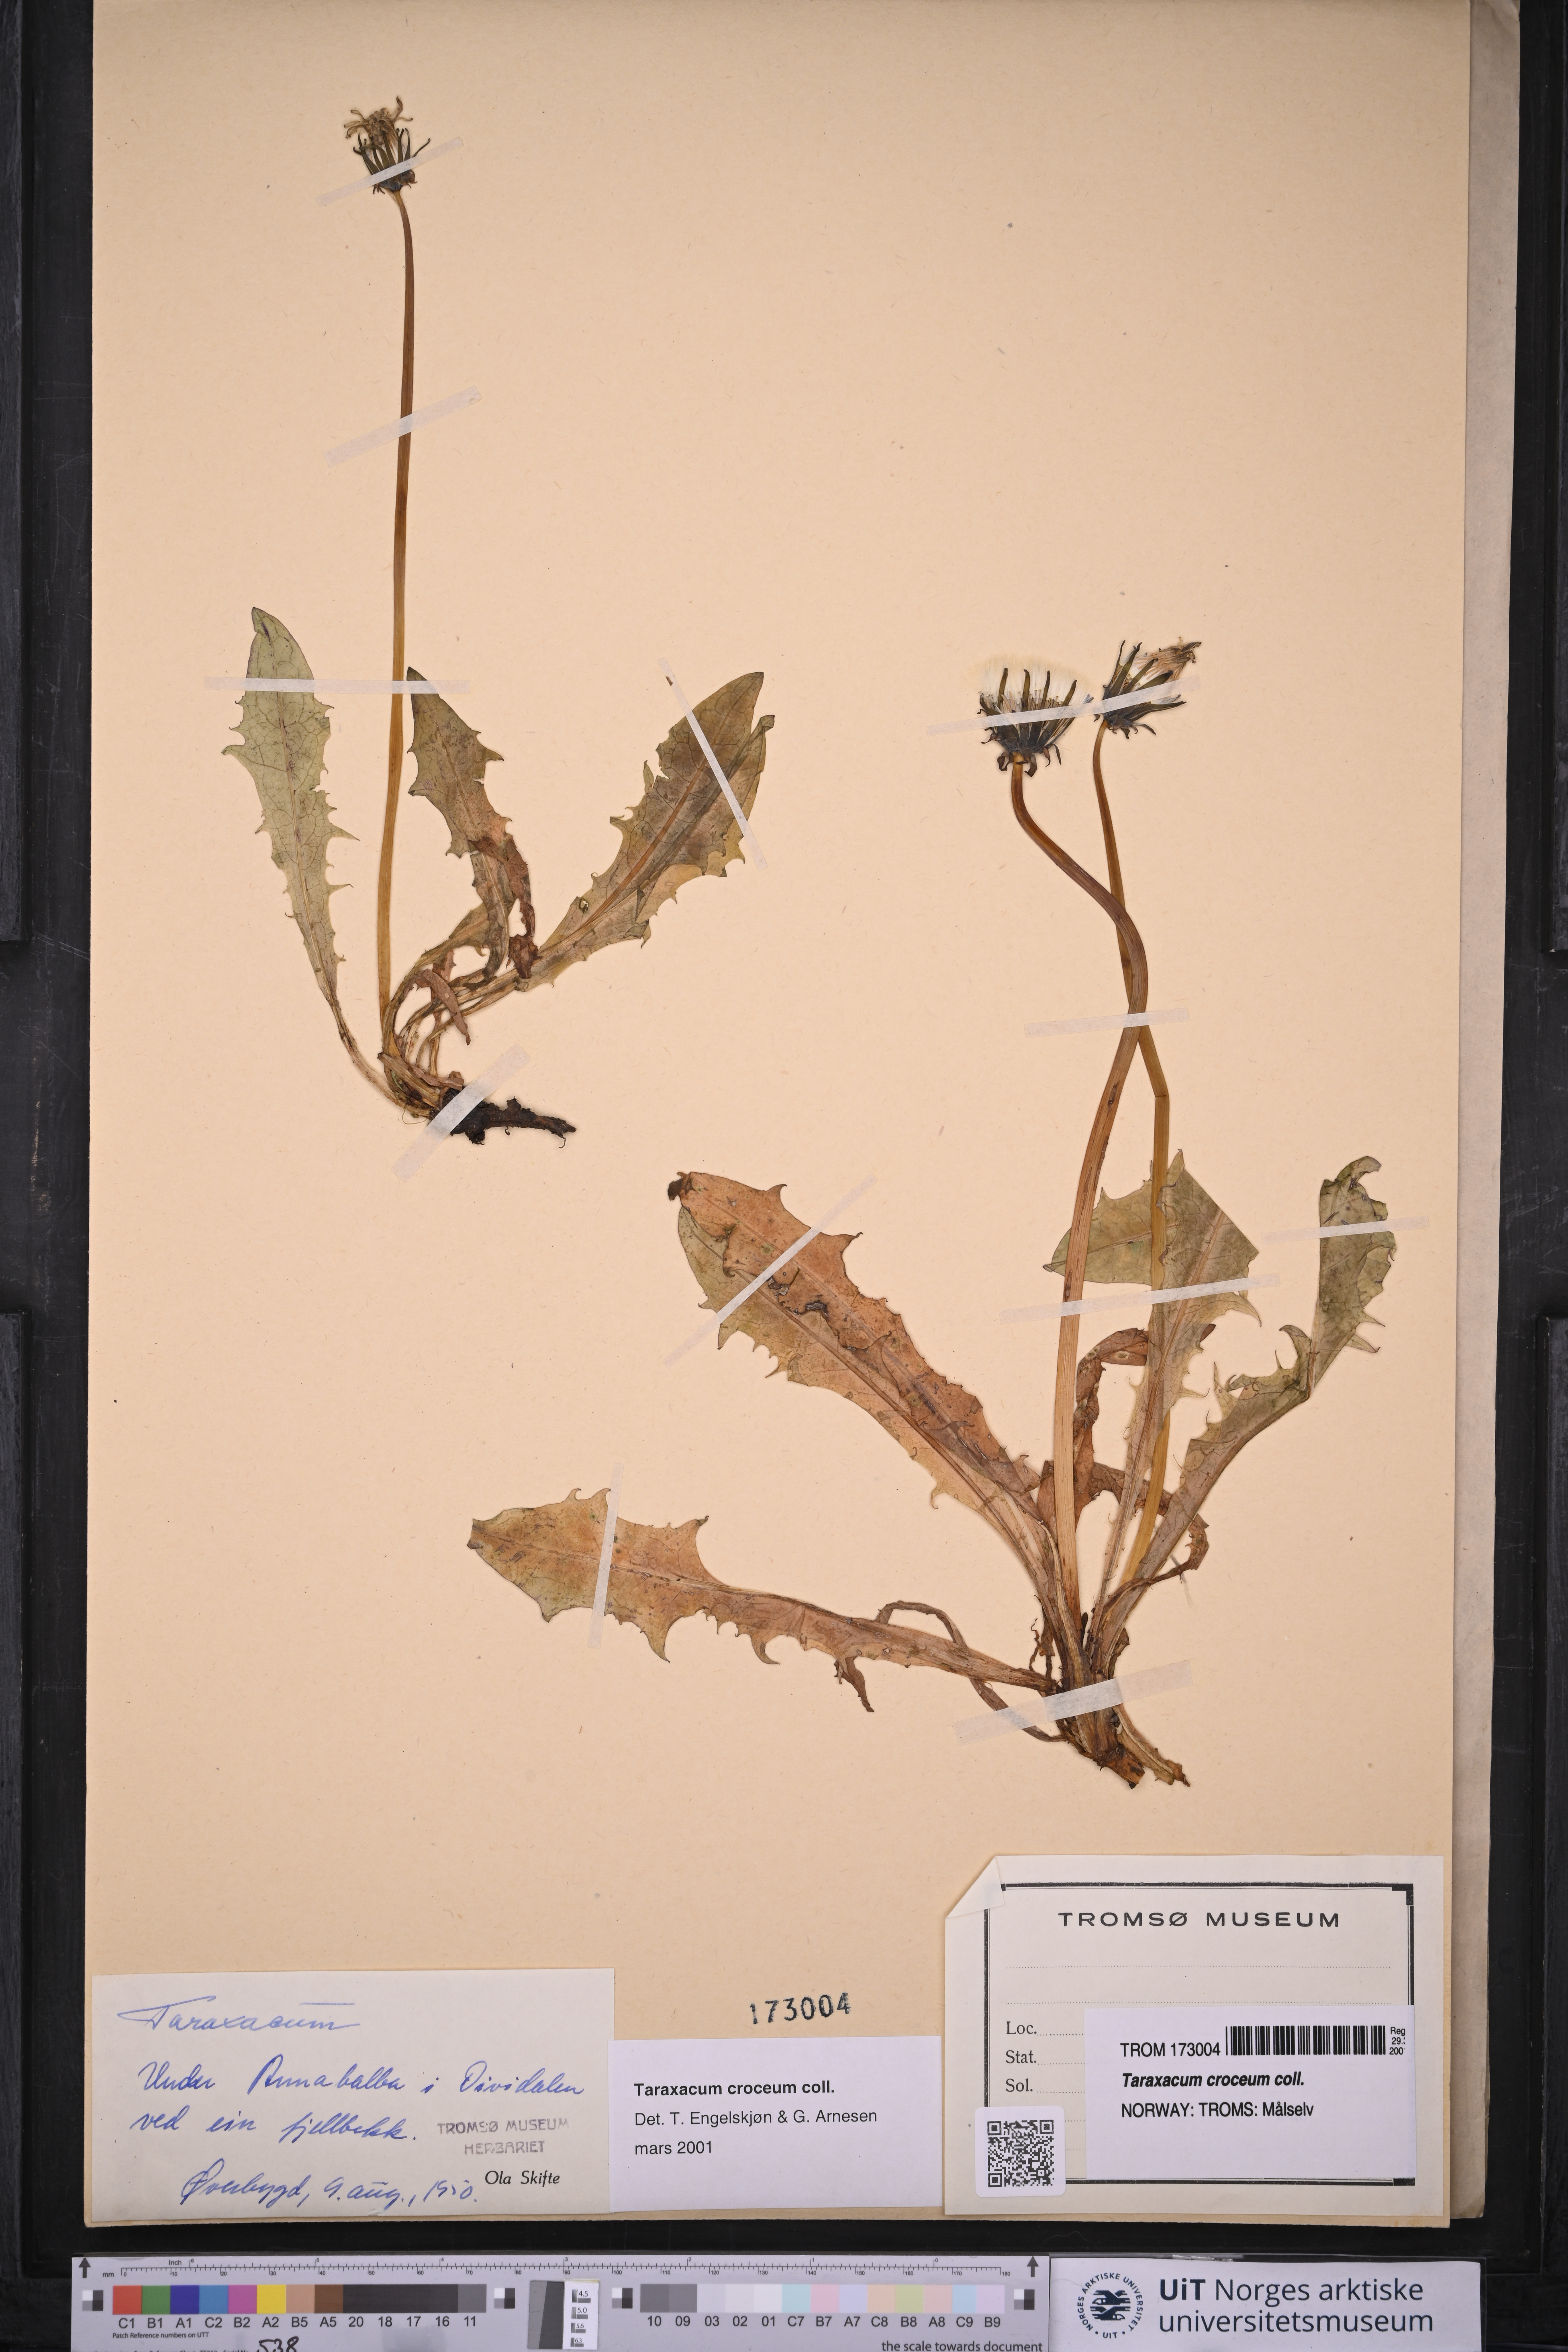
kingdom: Plantae
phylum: Tracheophyta
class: Magnoliopsida
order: Asterales
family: Asteraceae
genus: Taraxacum
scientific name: Taraxacum croceum
